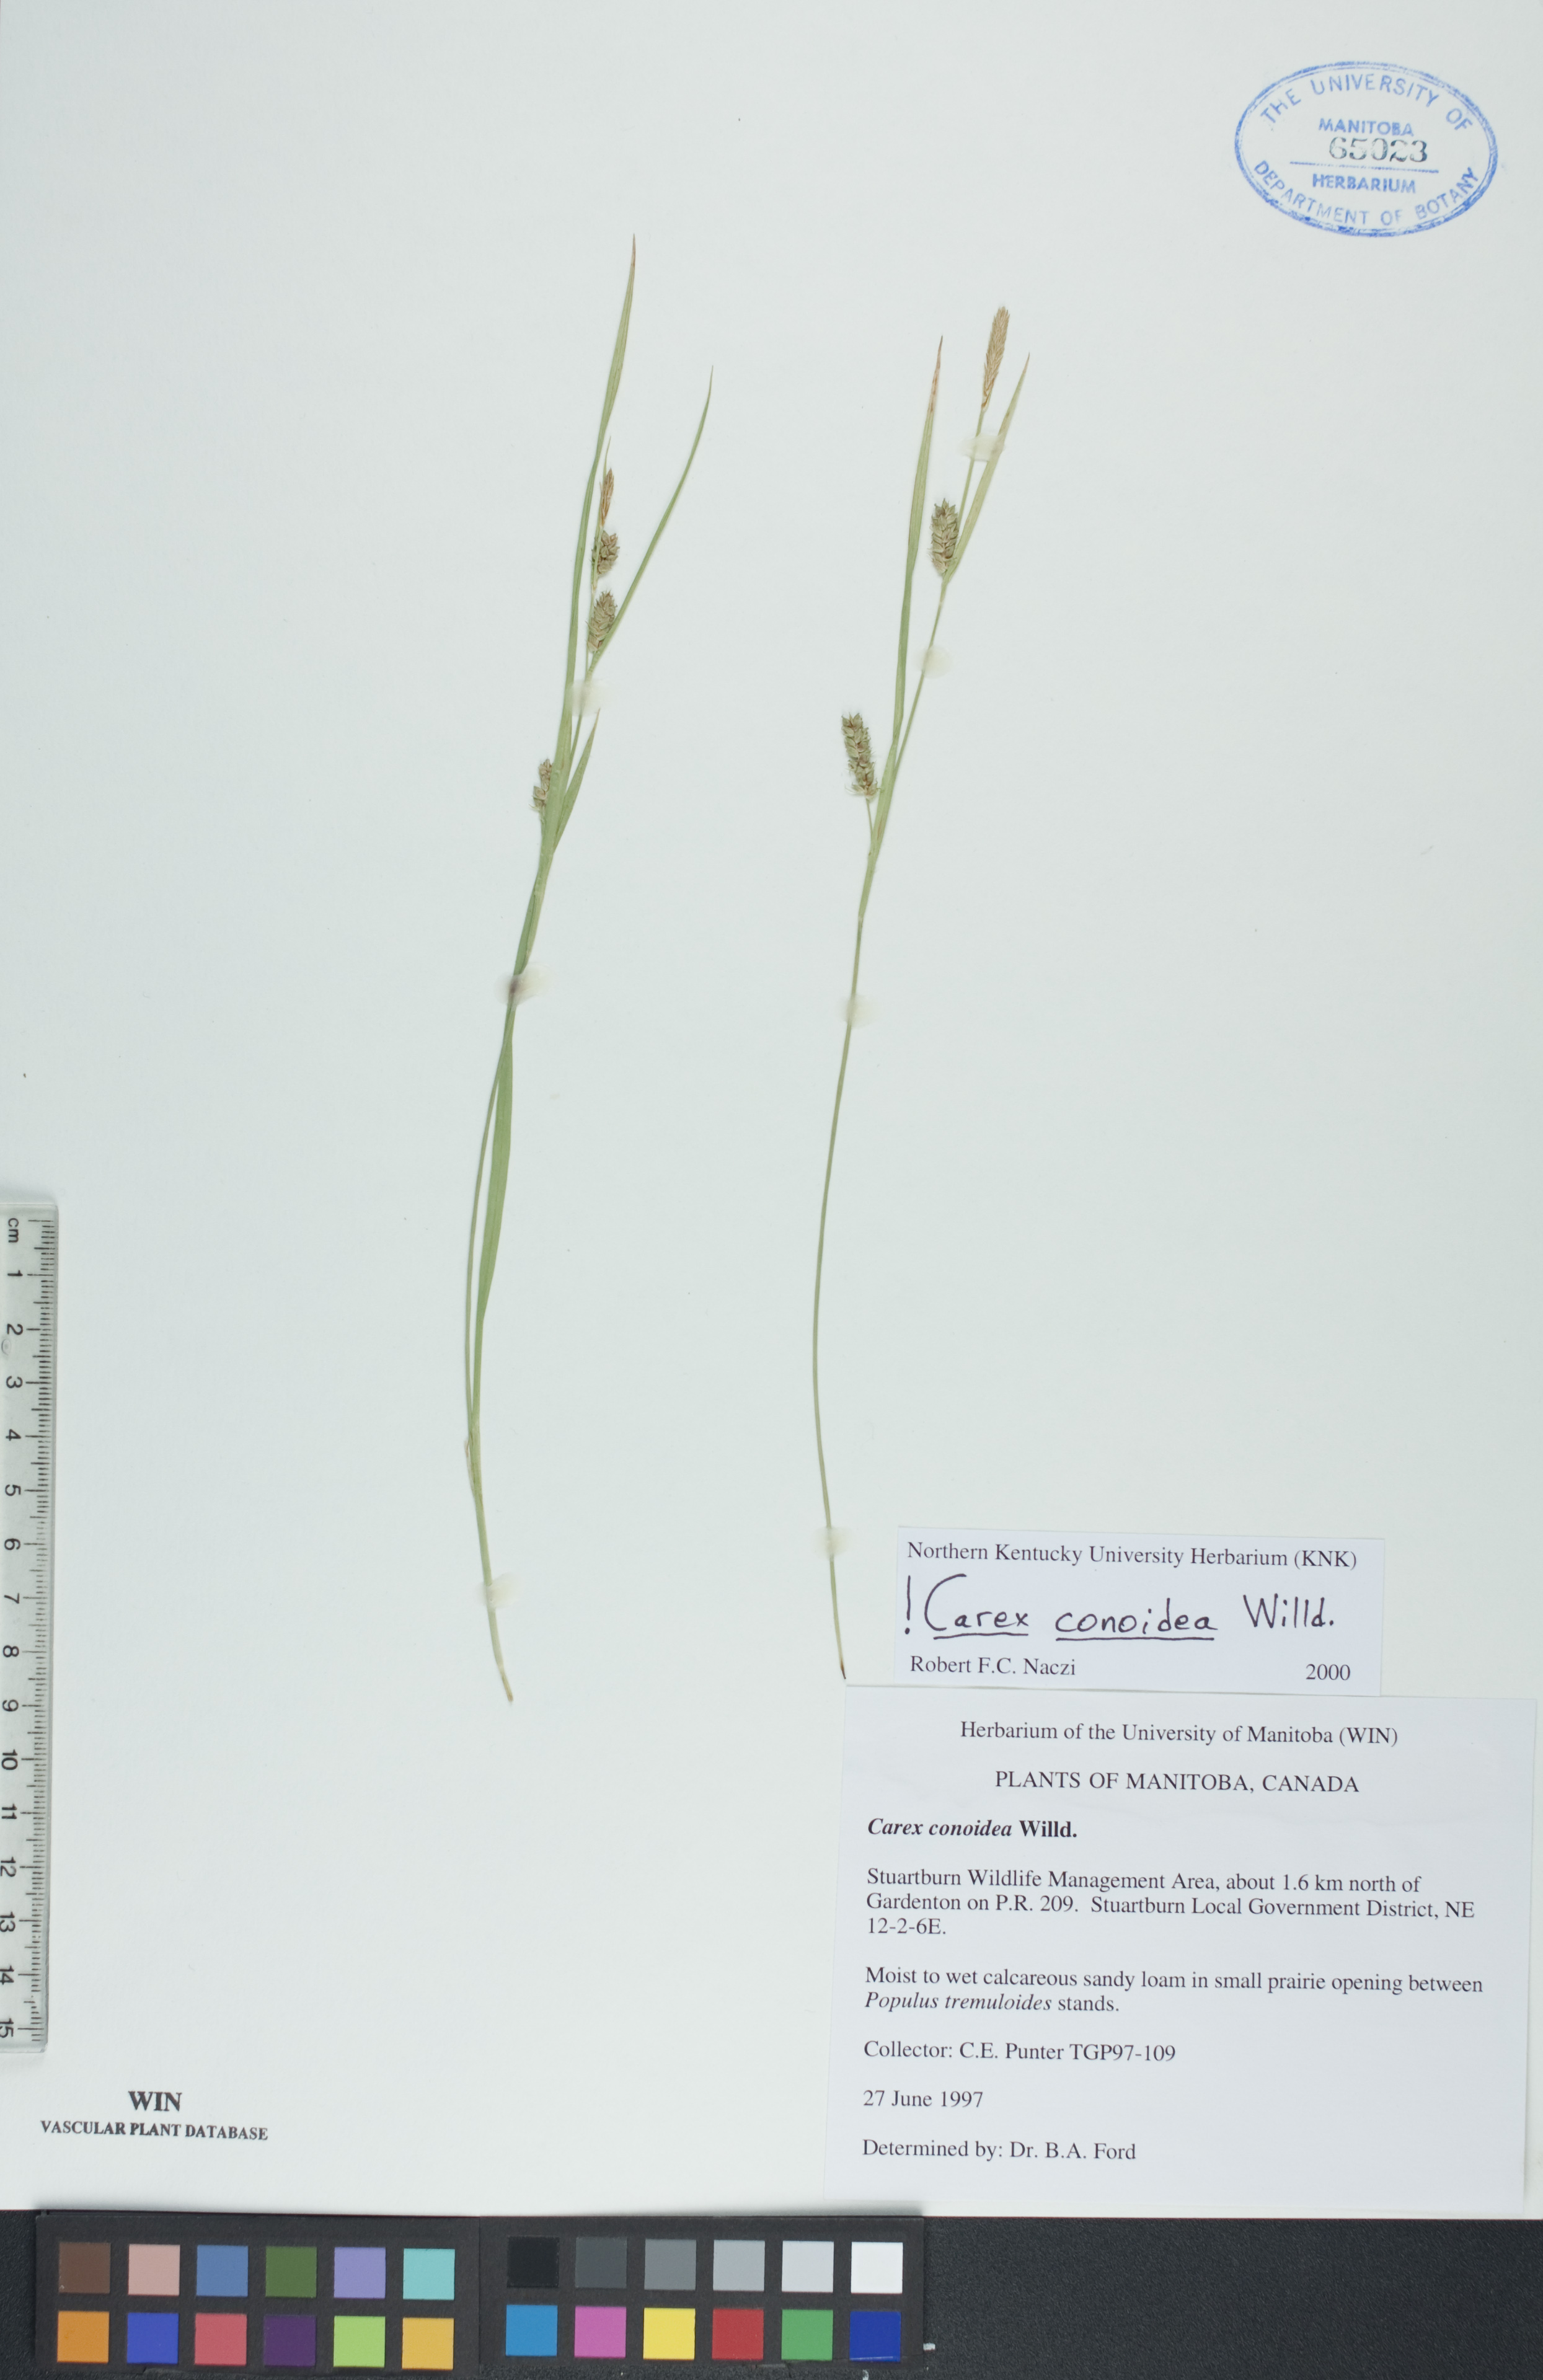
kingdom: Plantae
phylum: Tracheophyta
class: Liliopsida
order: Poales
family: Cyperaceae
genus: Carex
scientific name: Carex conoidea
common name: Cone shaped sedge
